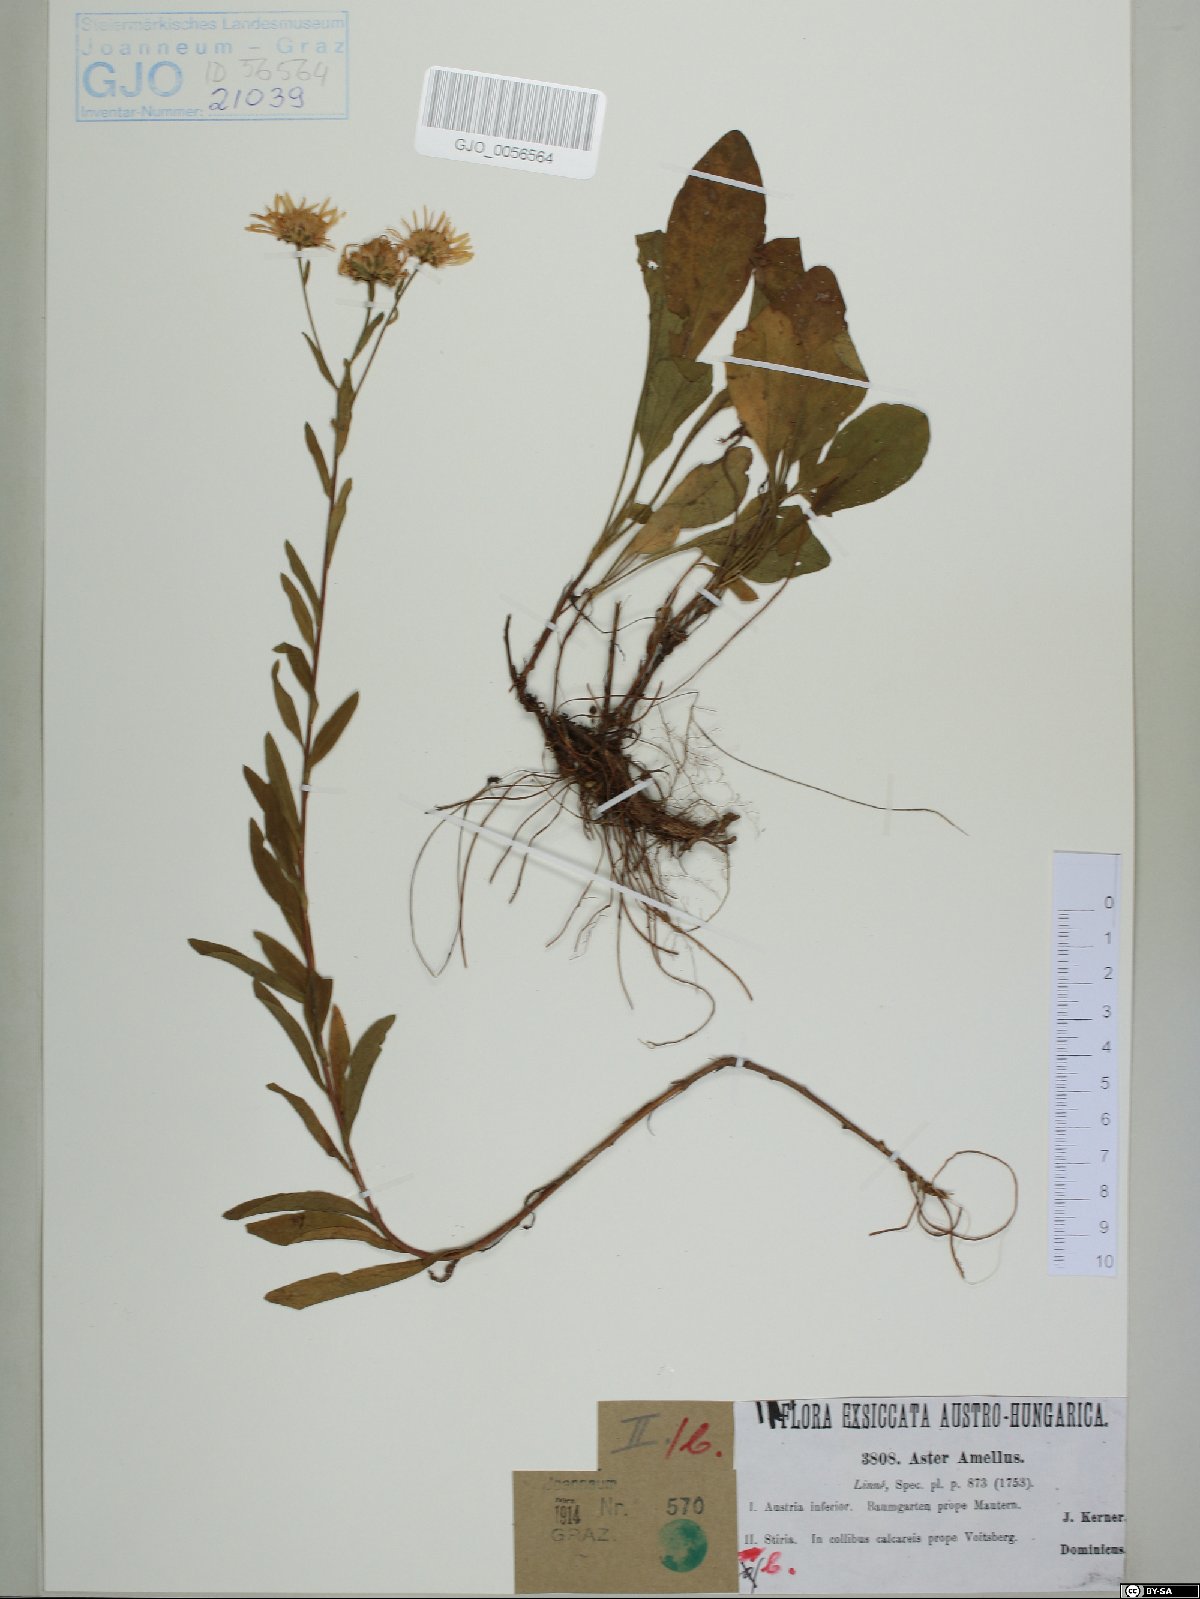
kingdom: Plantae
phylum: Tracheophyta
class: Magnoliopsida
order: Asterales
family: Asteraceae
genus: Aster
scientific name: Aster amellus
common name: European michaelmas daisy
